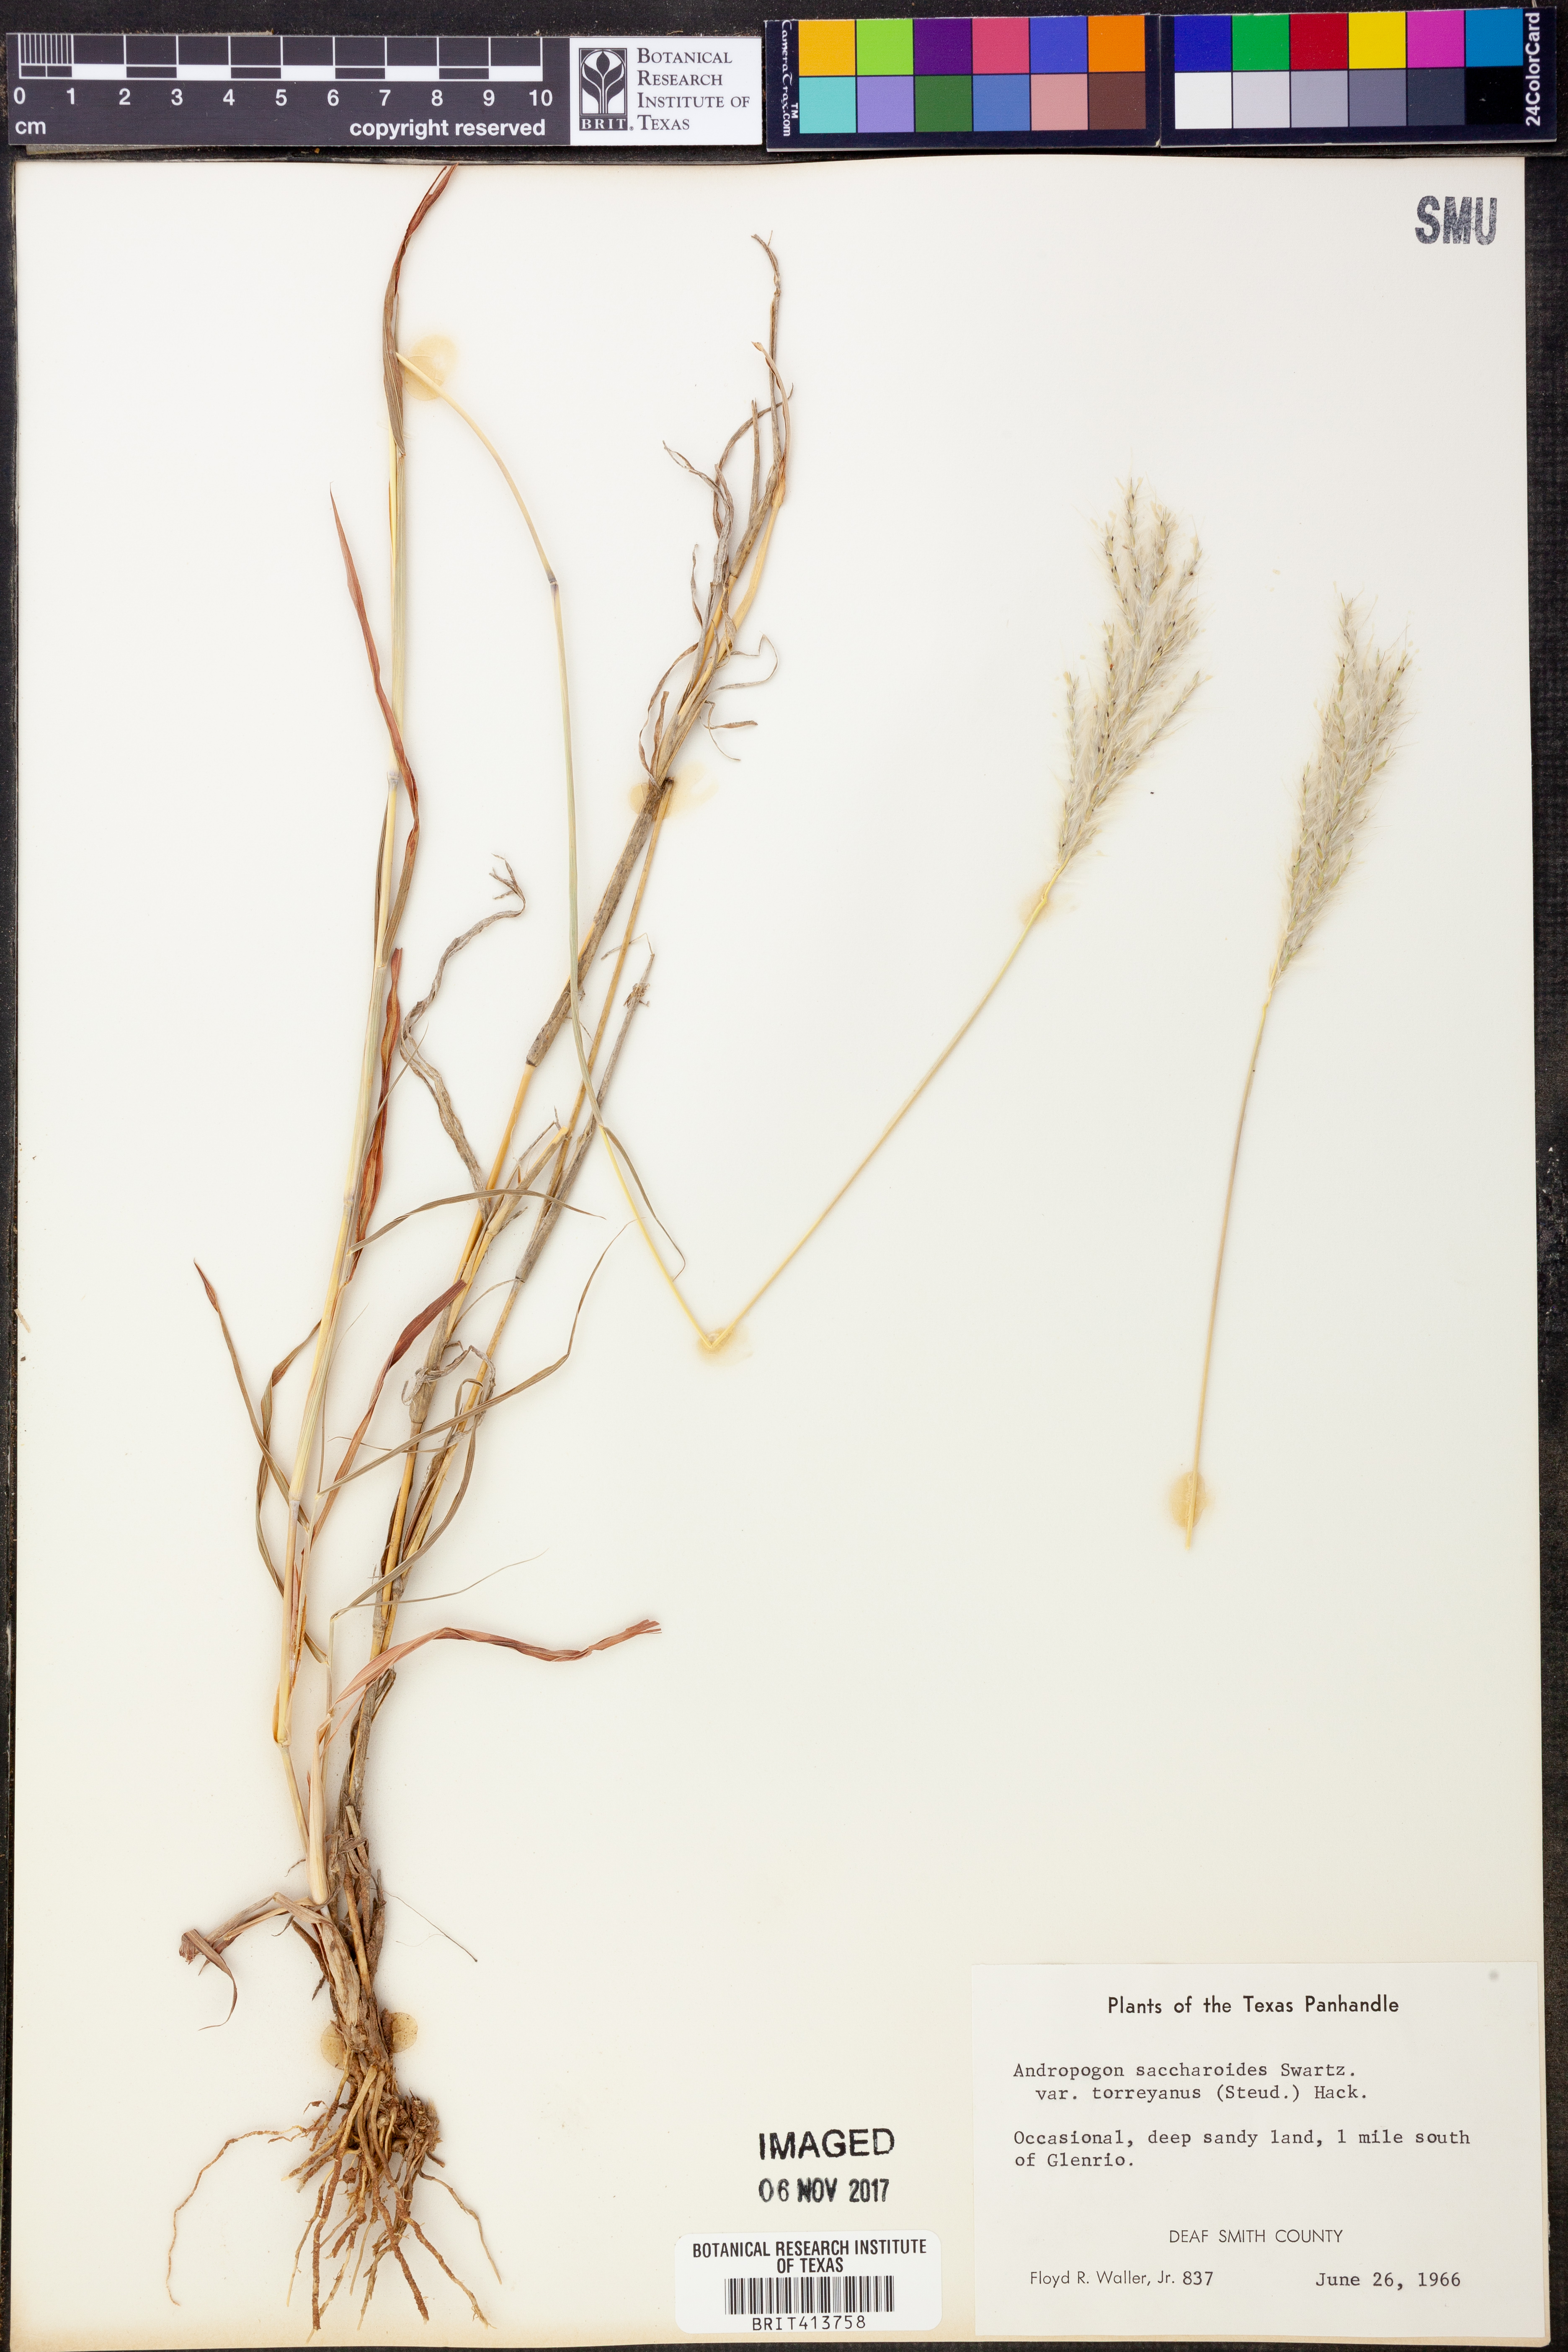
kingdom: Plantae
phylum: Tracheophyta
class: Liliopsida
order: Poales
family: Poaceae
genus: Bothriochloa
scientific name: Bothriochloa torreyana
